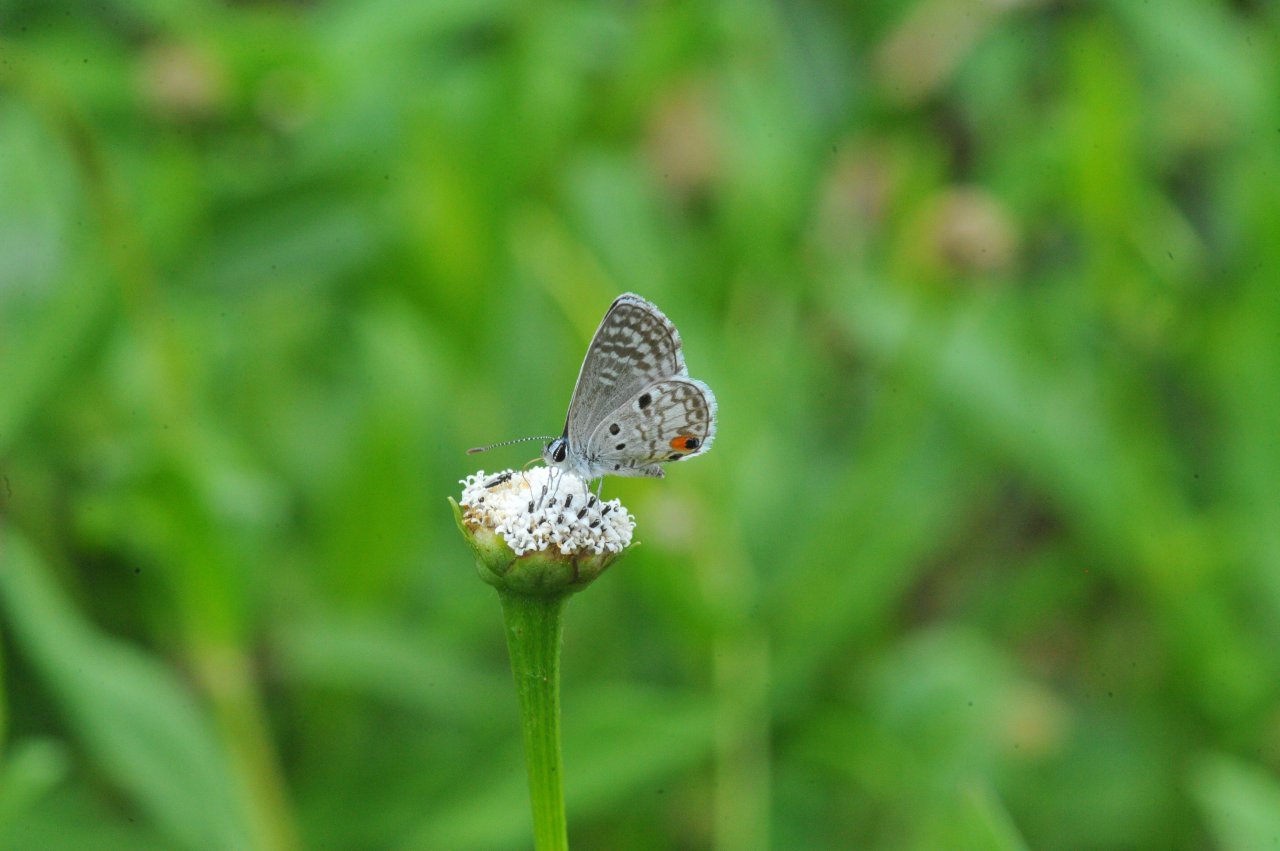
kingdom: Animalia
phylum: Arthropoda
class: Insecta
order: Lepidoptera
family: Lycaenidae
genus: Cyclargus
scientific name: Cyclargus ammon
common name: Nickerbean Blue
